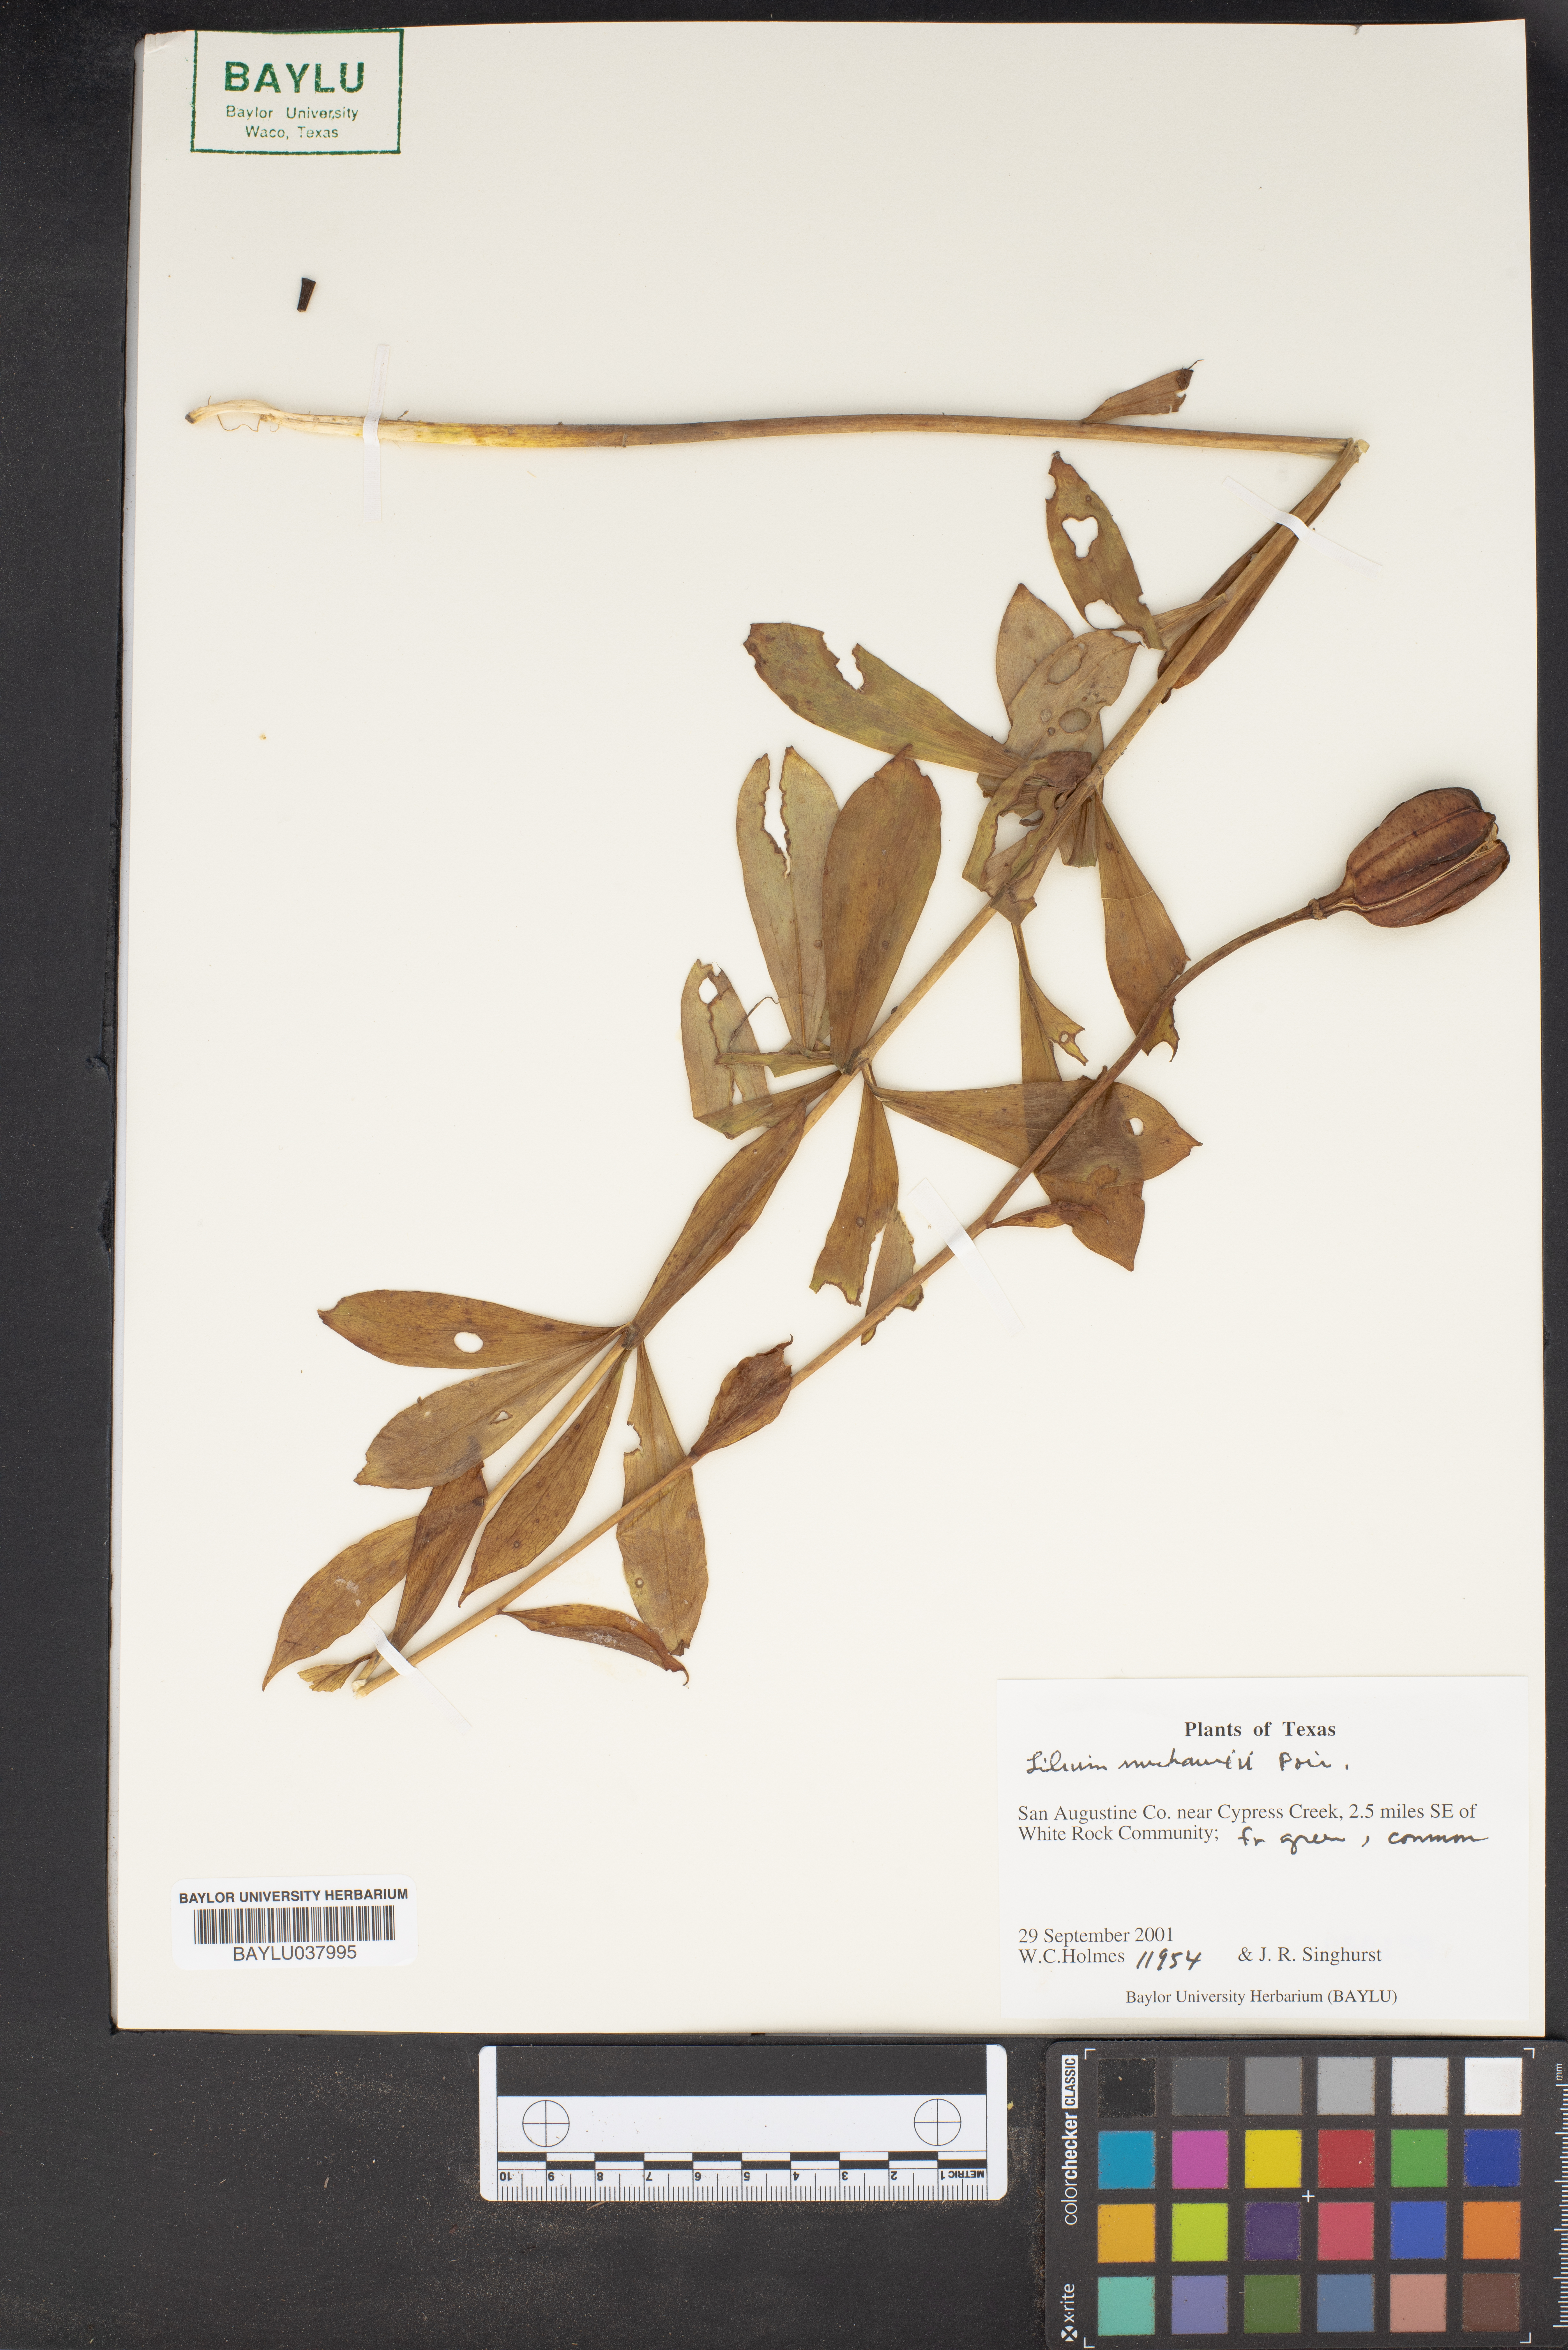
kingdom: Plantae
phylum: Tracheophyta
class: Liliopsida
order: Liliales
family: Liliaceae
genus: Lilium
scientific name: Lilium michauxii
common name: Carolina lily
